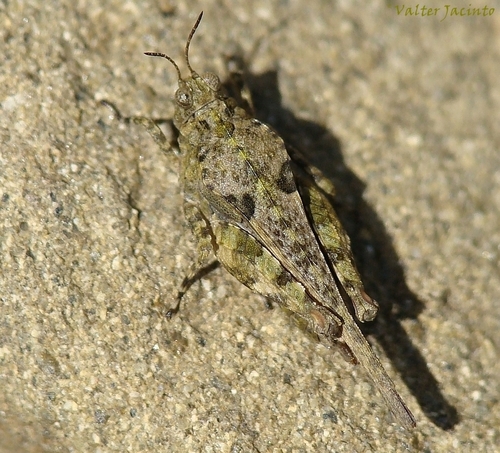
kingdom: Animalia
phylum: Arthropoda
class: Insecta
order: Orthoptera
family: Tetrigidae
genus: Paratettix
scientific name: Paratettix meridionalis
